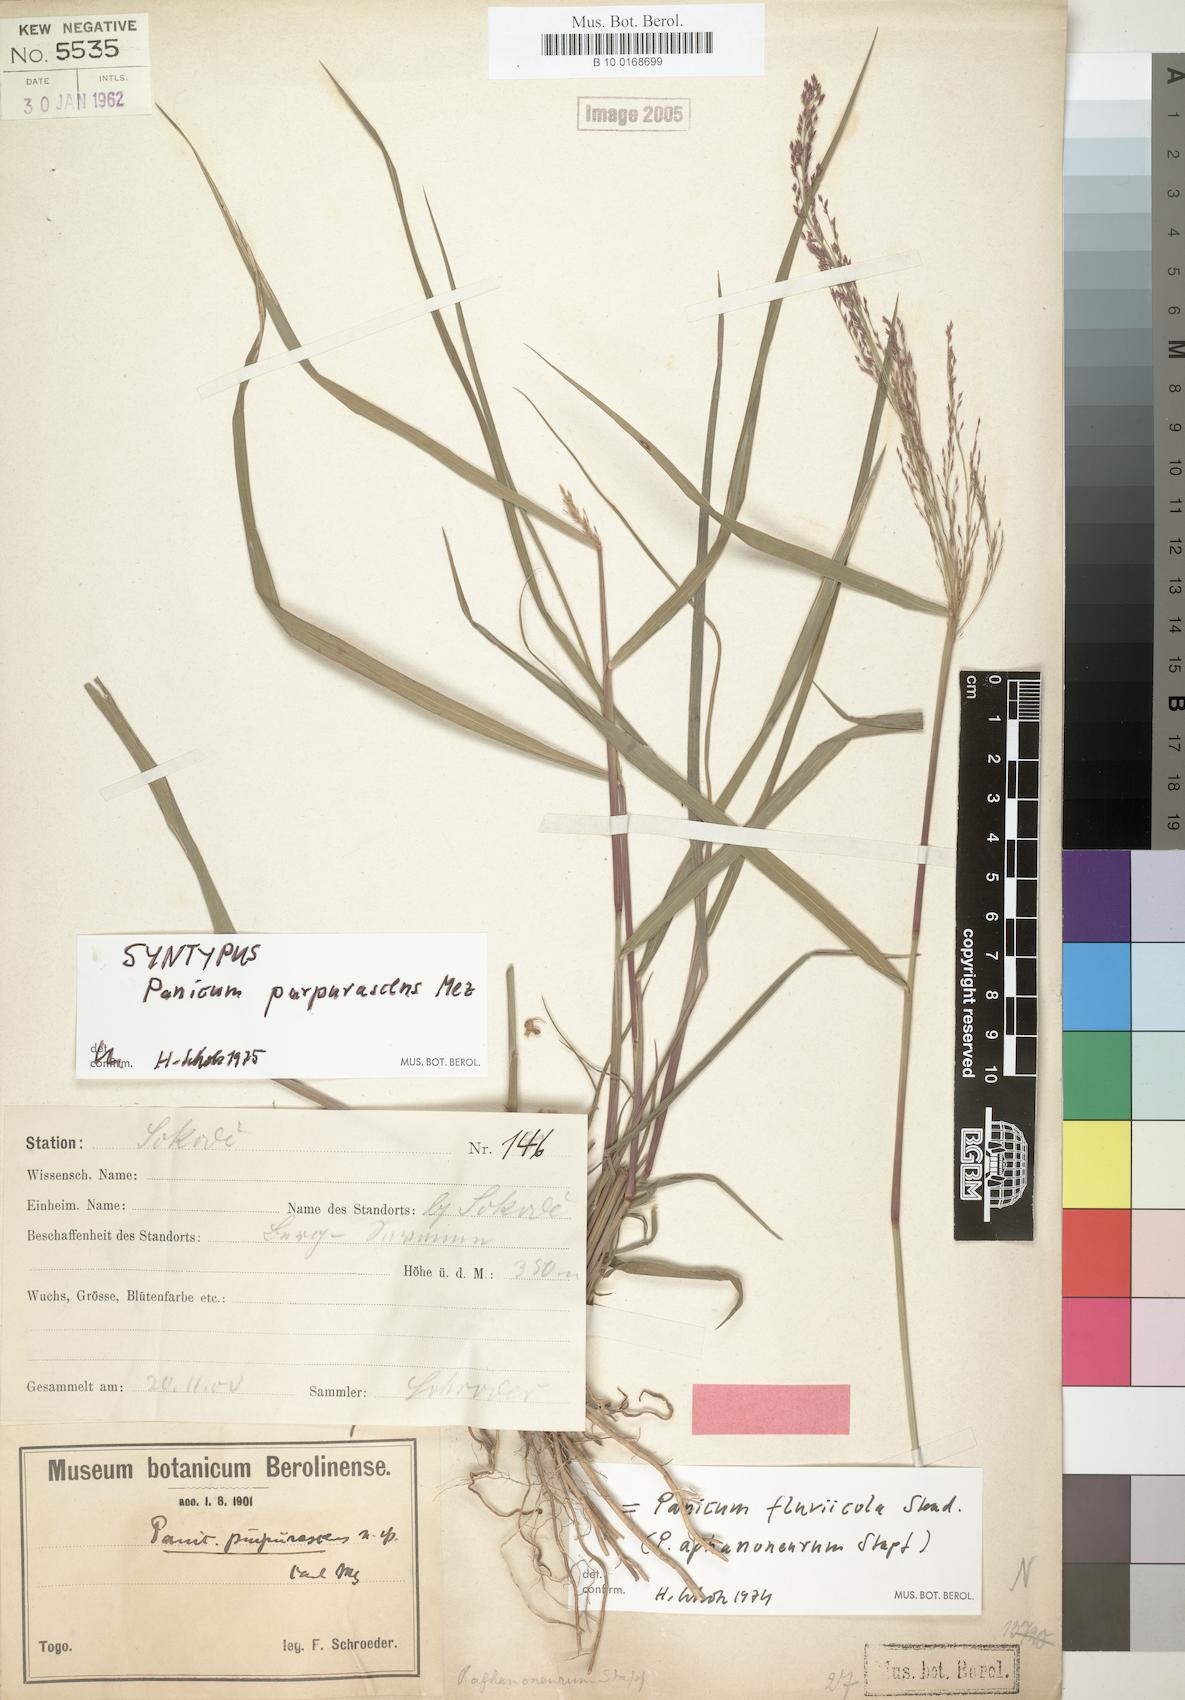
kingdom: Plantae
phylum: Tracheophyta
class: Liliopsida
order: Poales
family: Poaceae
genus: Panicum
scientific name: Panicum fluviicola
